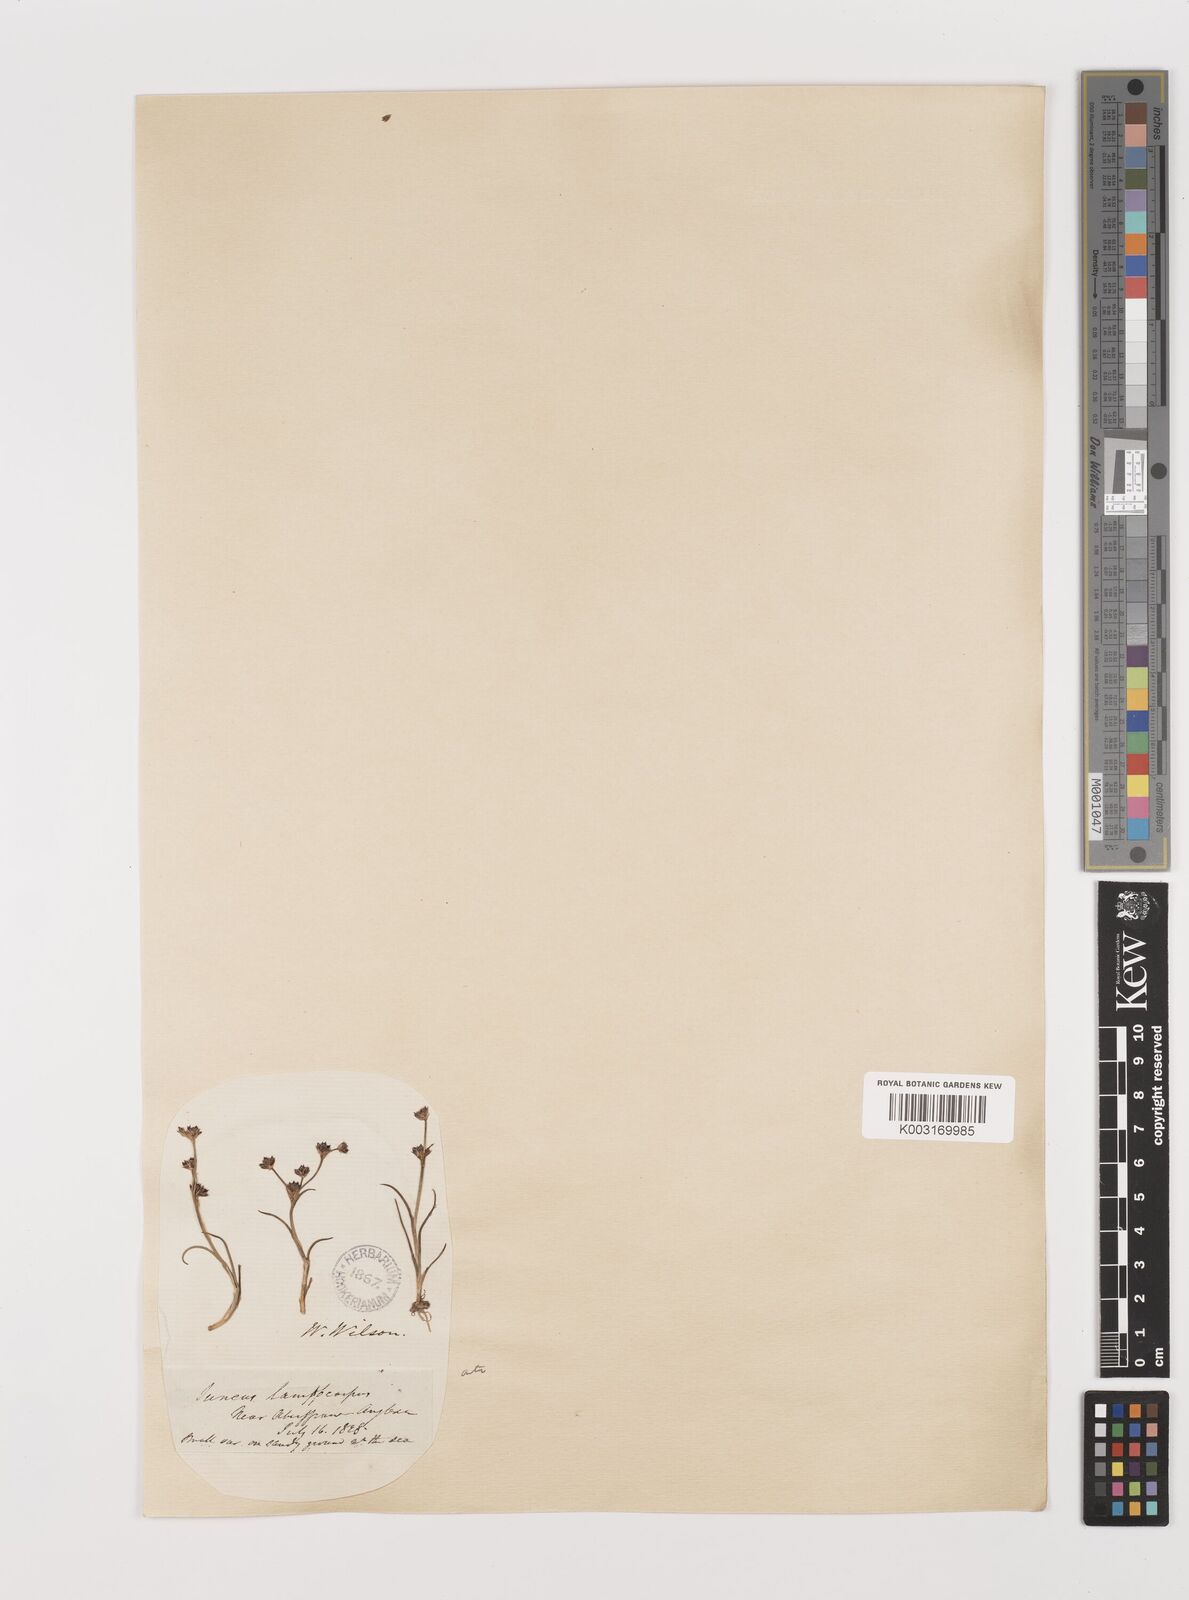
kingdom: Plantae
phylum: Tracheophyta
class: Liliopsida
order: Poales
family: Juncaceae
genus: Juncus
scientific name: Juncus articulatus
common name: Jointed rush
